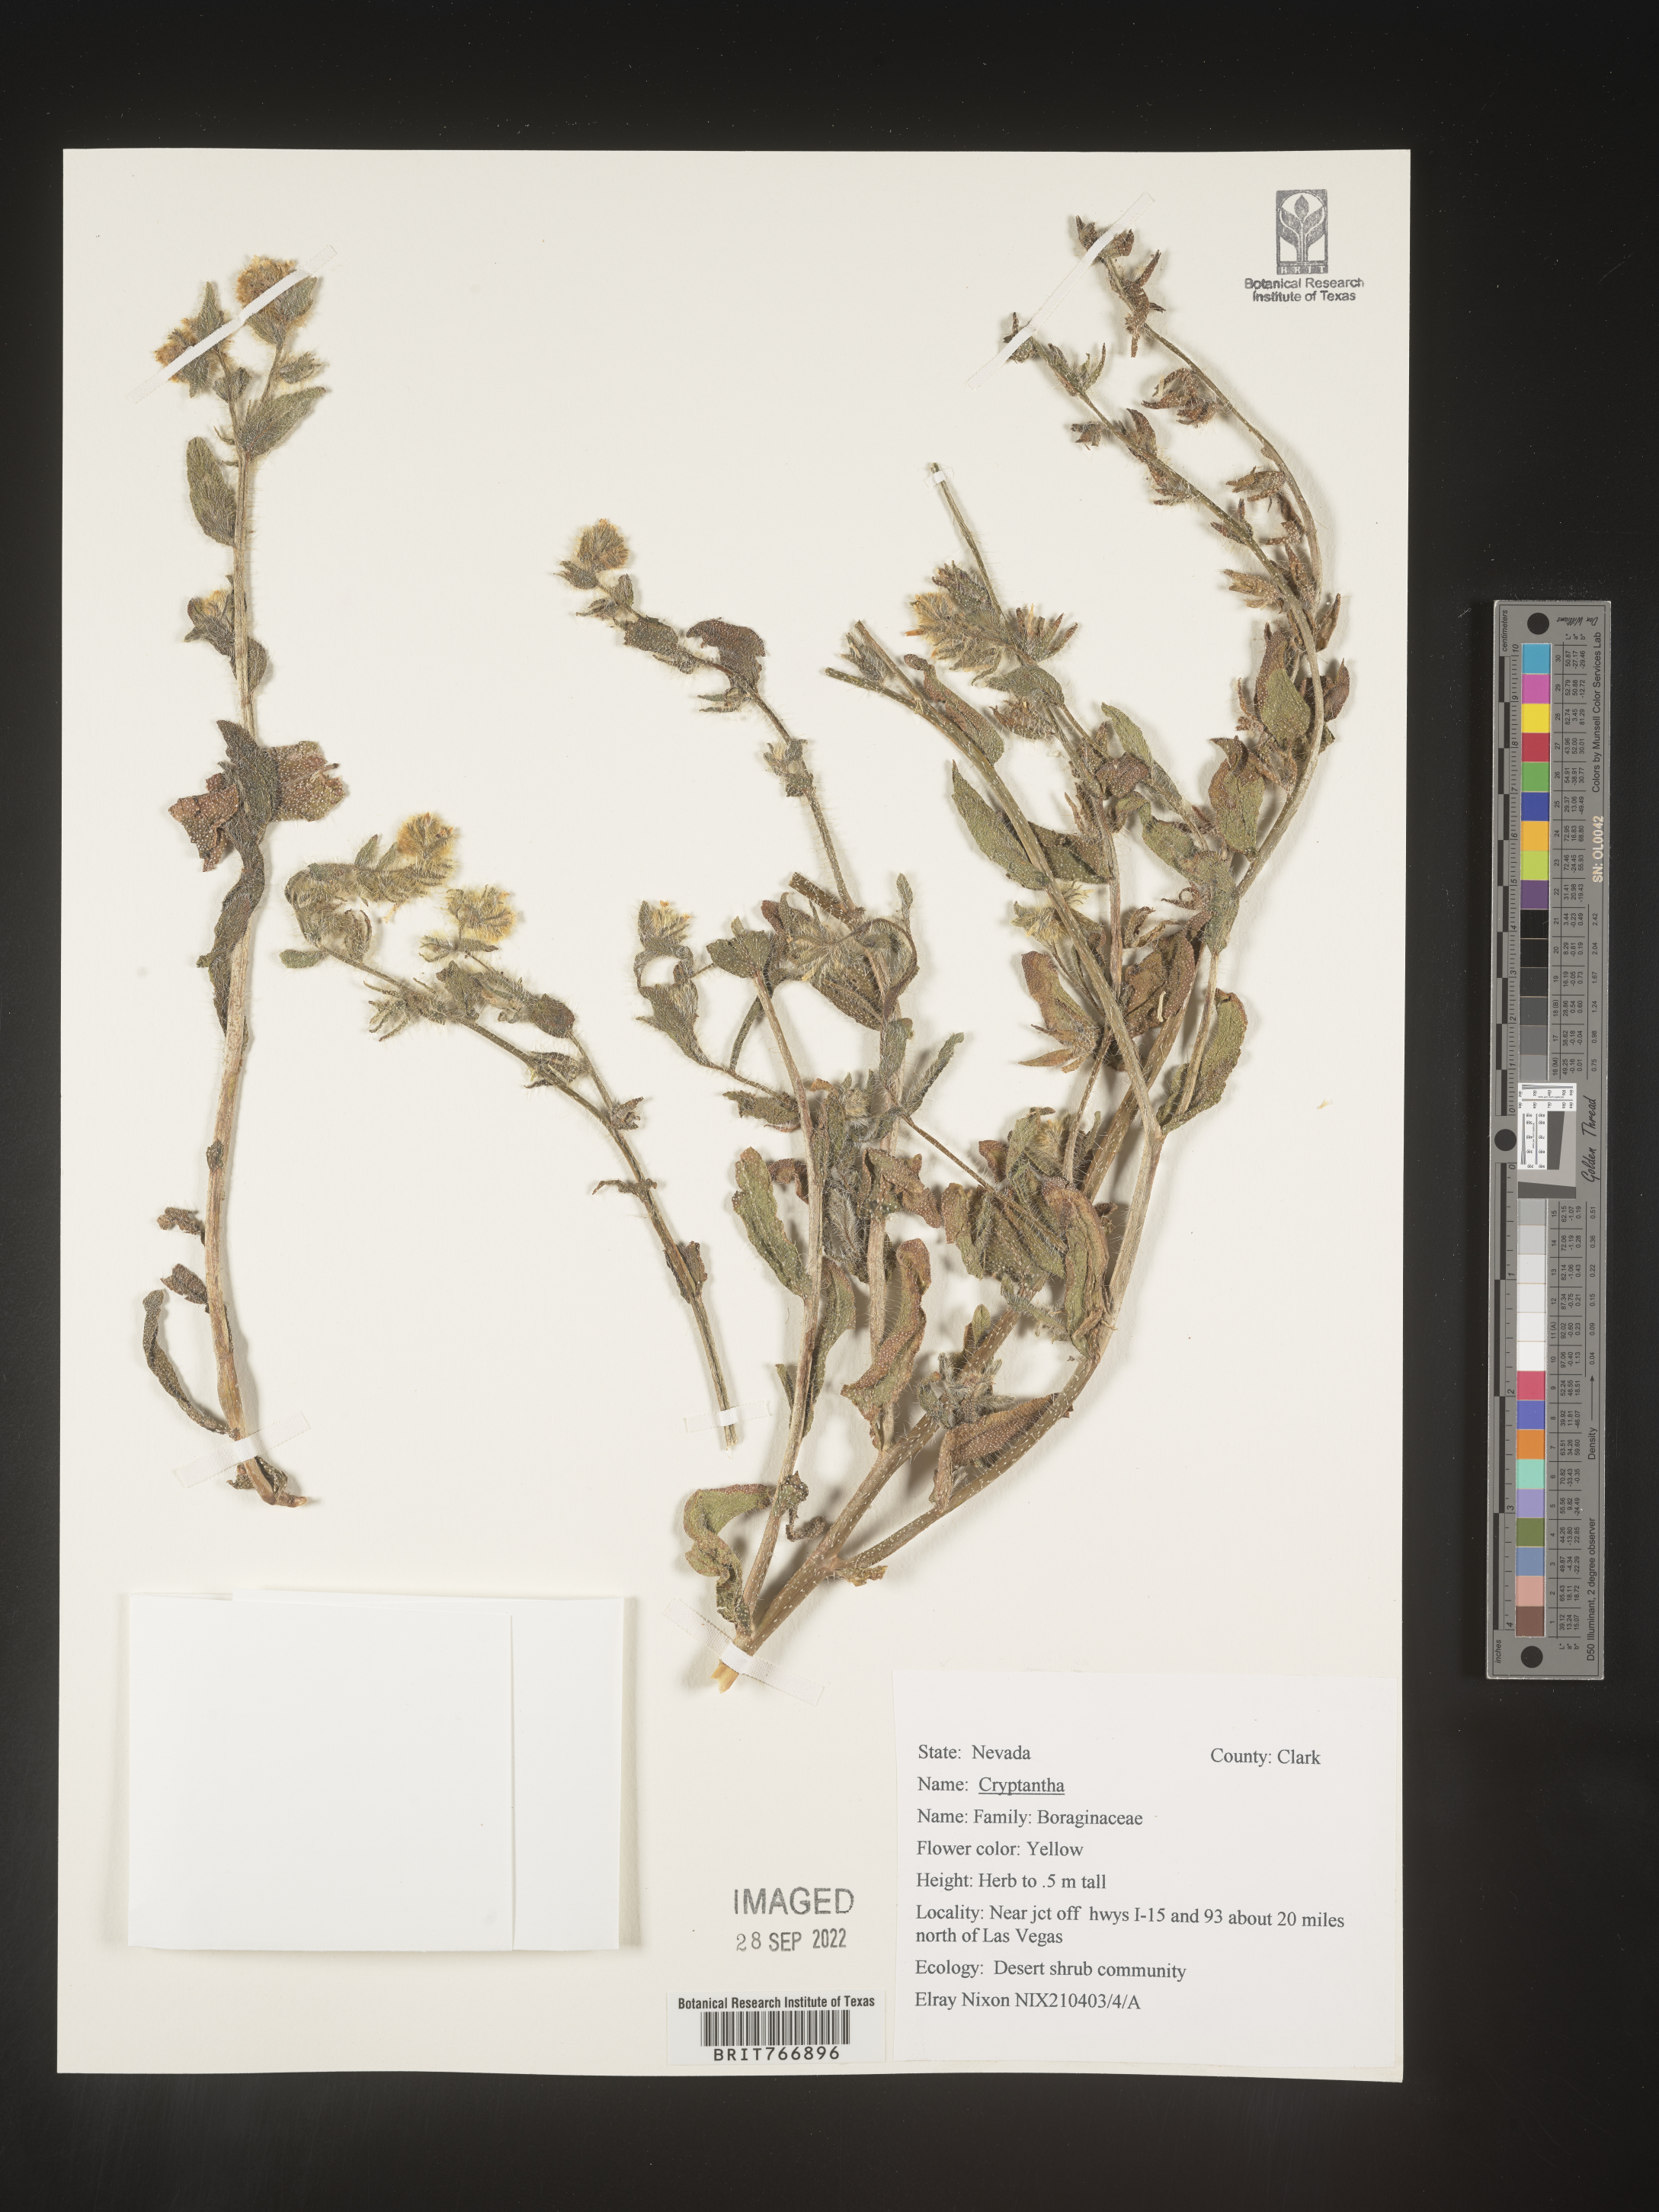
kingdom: Plantae
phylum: Tracheophyta
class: Magnoliopsida
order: Boraginales
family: Boraginaceae
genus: Cryptantha
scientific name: Cryptantha
